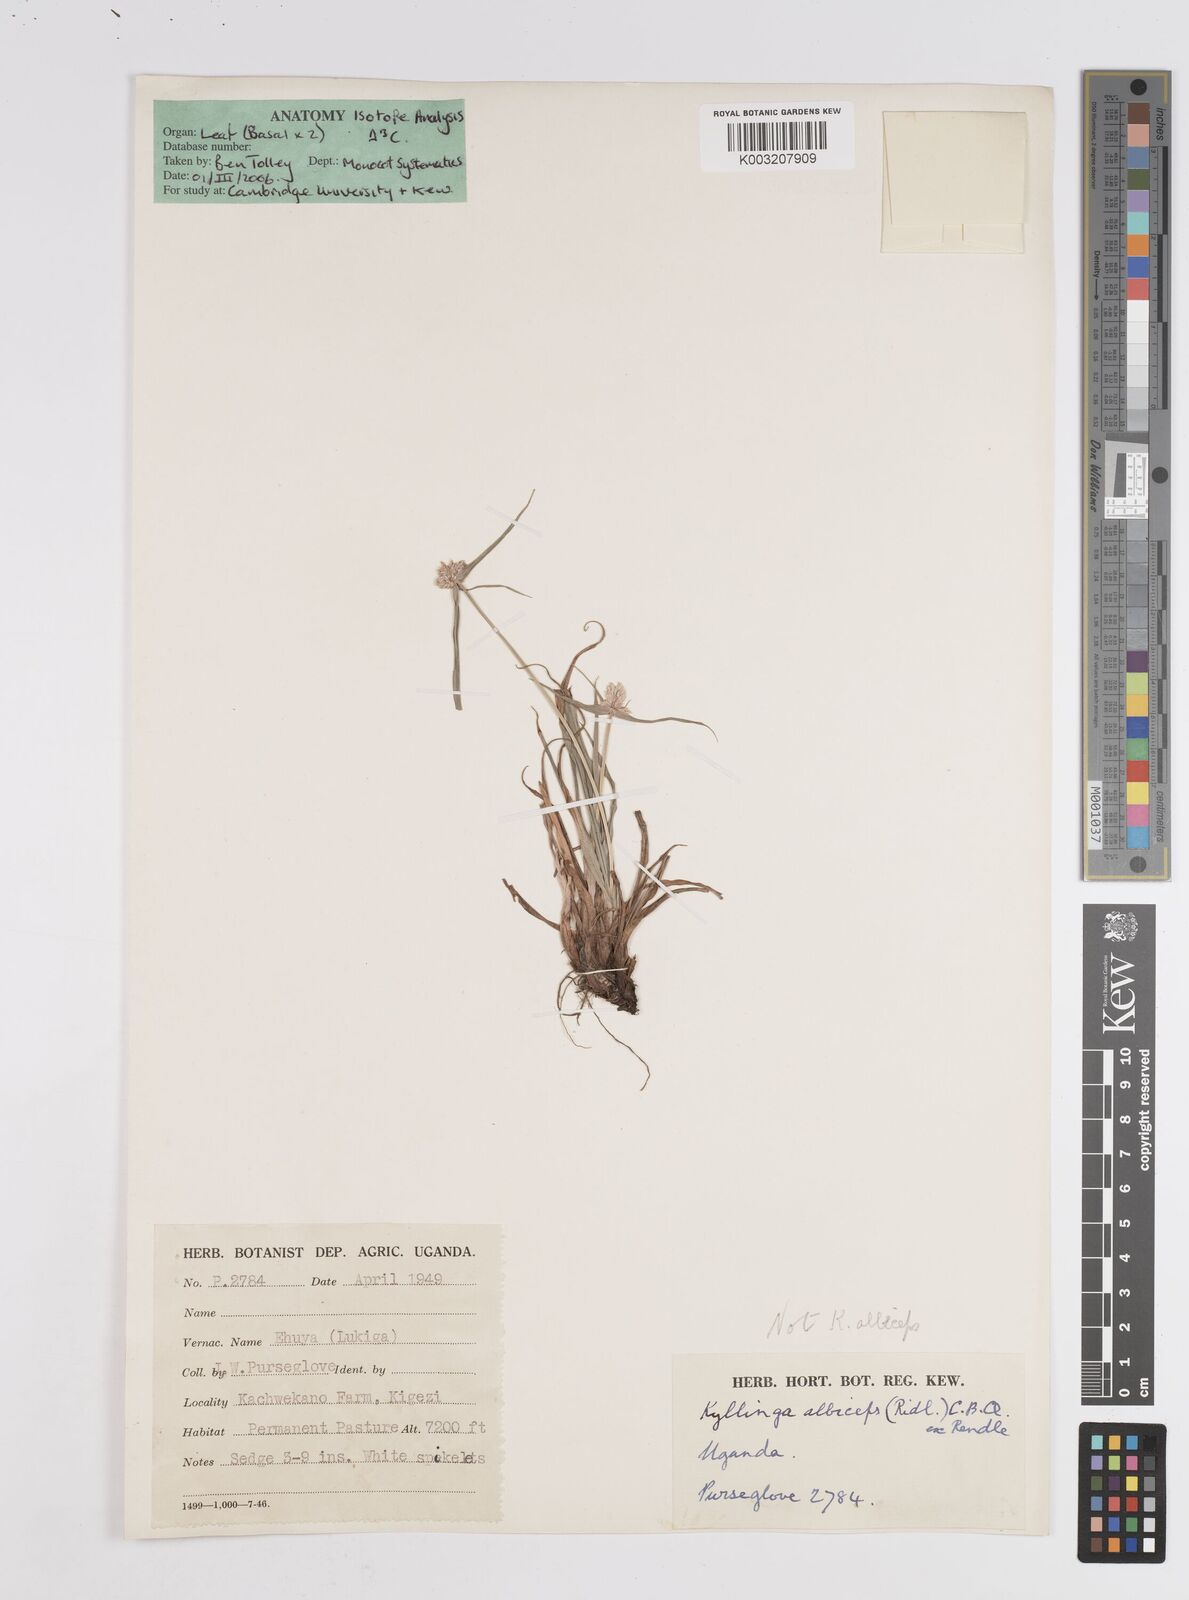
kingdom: Plantae
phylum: Tracheophyta
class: Liliopsida
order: Poales
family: Cyperaceae
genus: Cyperus
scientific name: Cyperus
